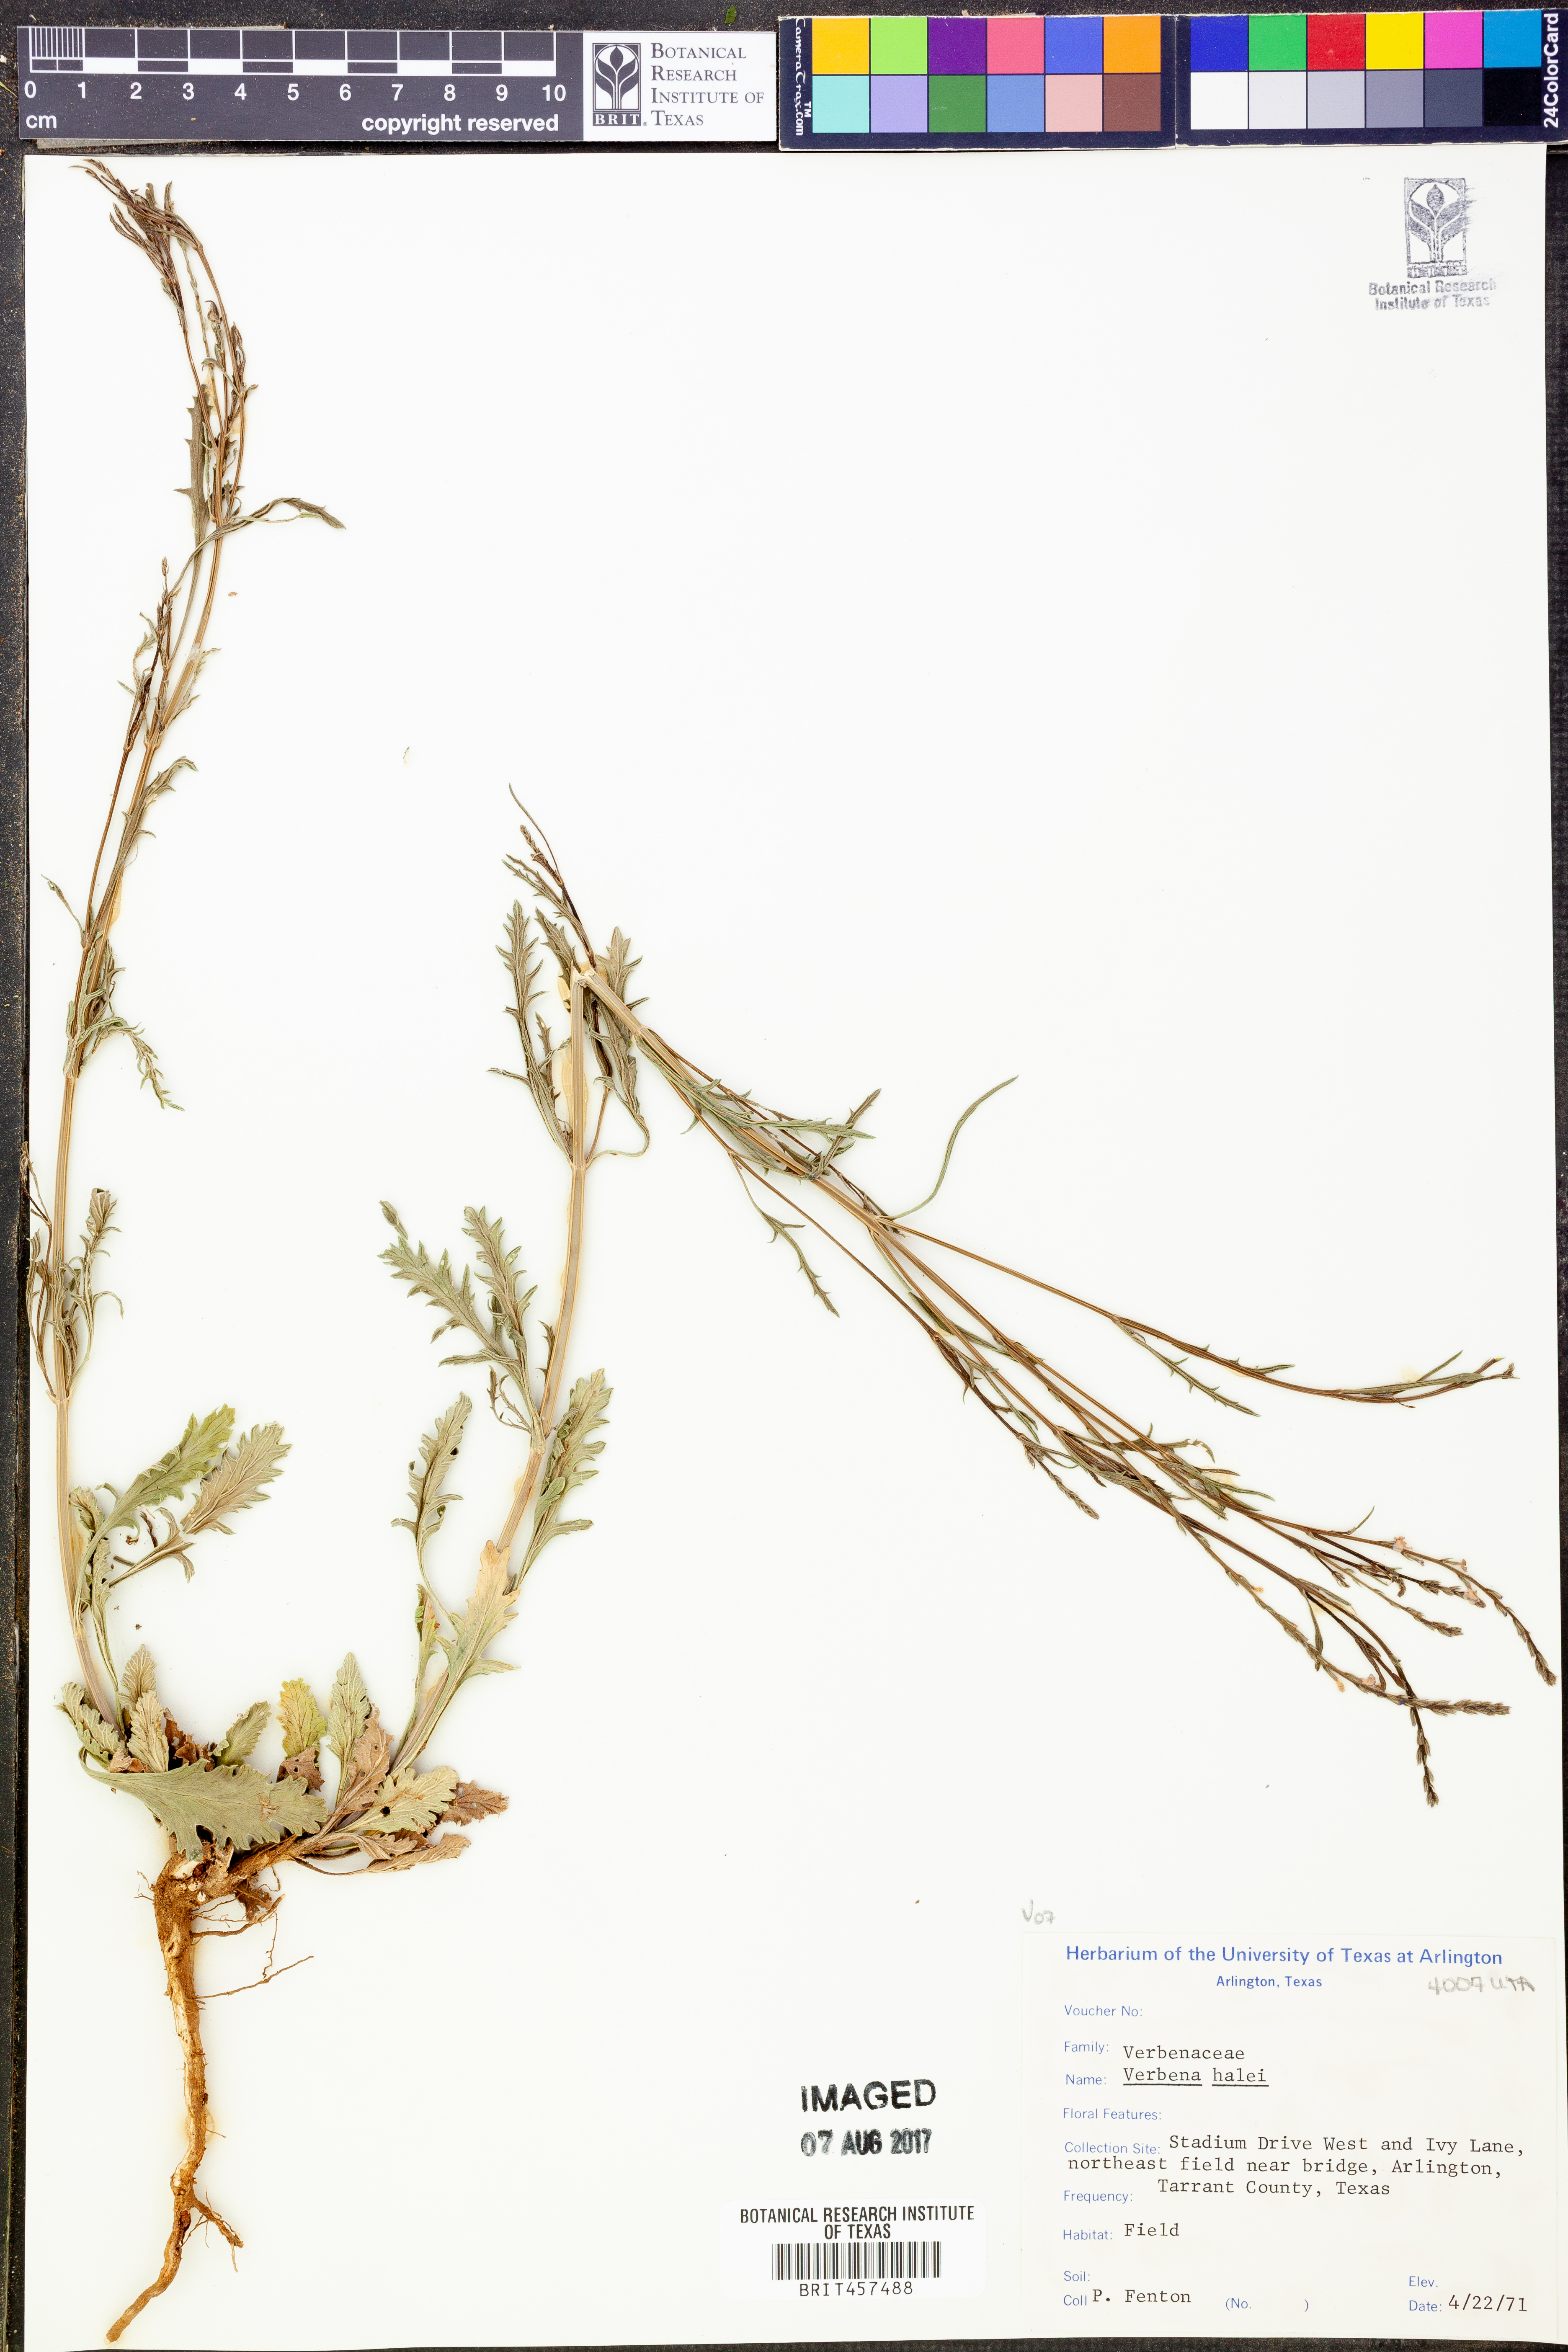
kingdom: Plantae
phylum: Tracheophyta
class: Magnoliopsida
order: Lamiales
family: Verbenaceae
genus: Verbena
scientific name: Verbena halei
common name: Texas vervain
